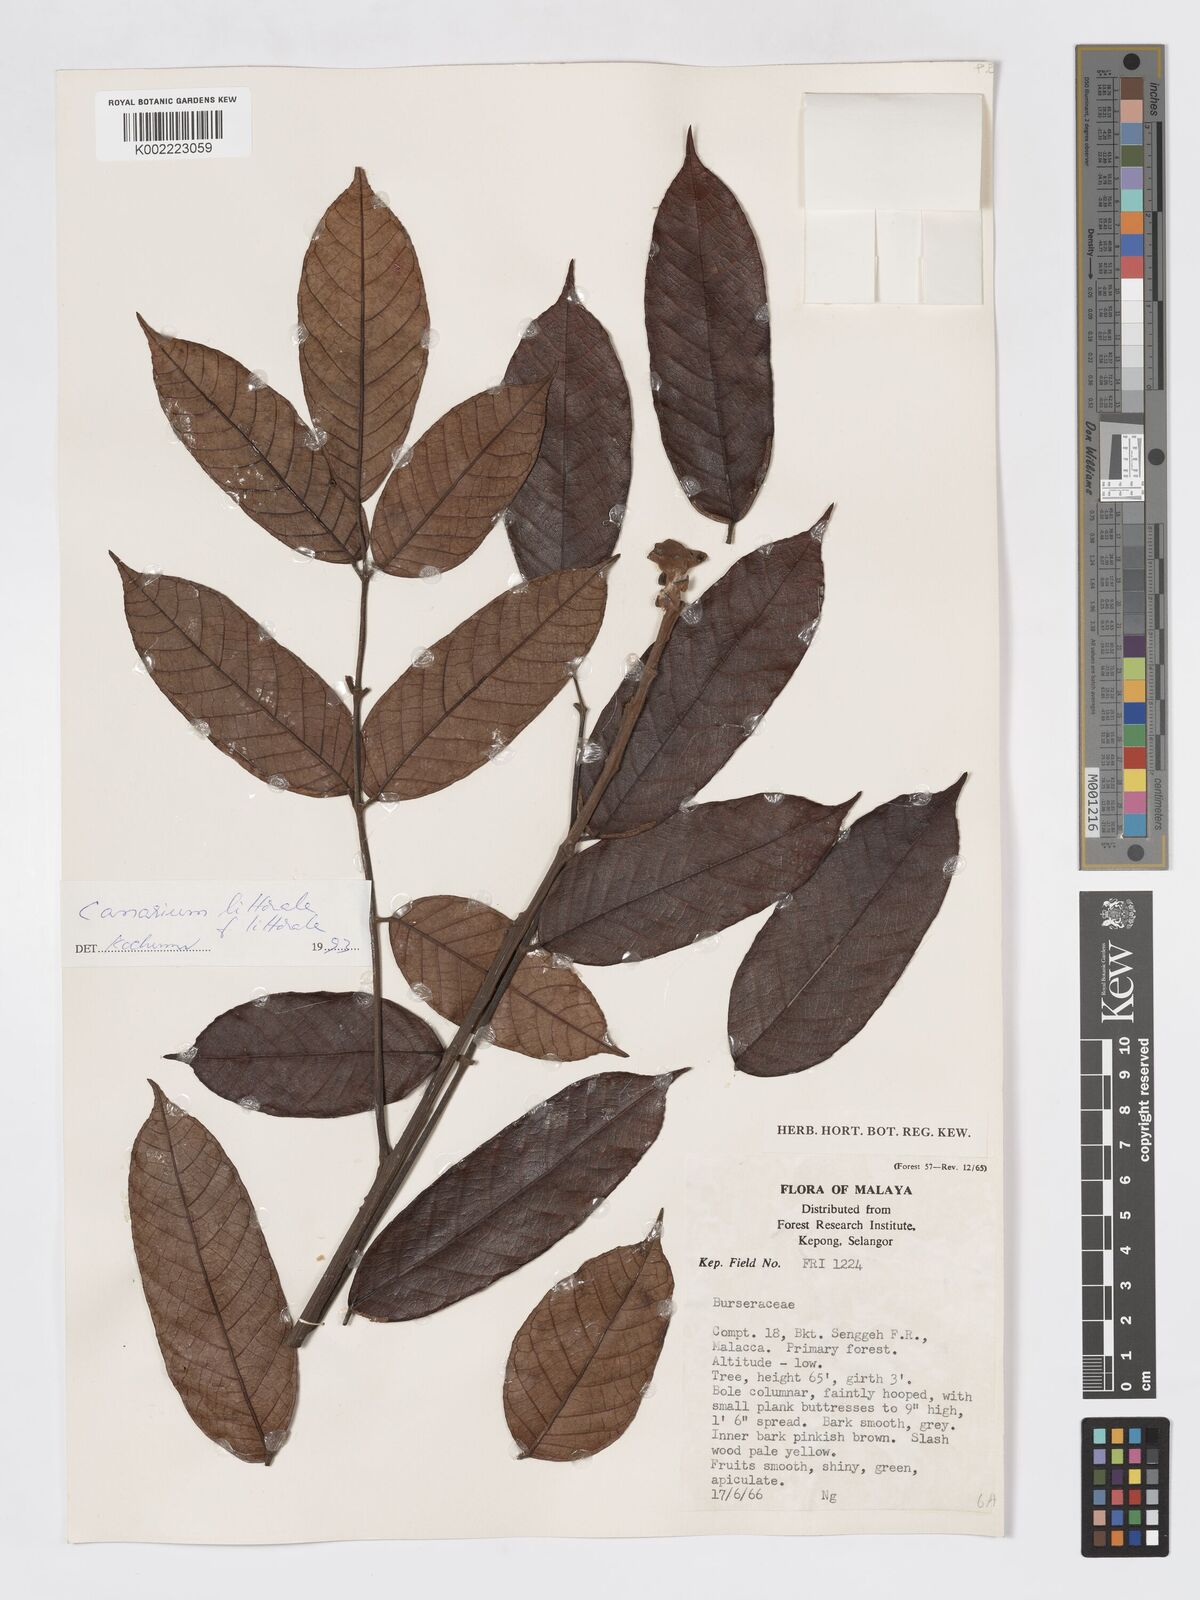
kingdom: Plantae
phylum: Tracheophyta
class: Magnoliopsida
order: Sapindales
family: Burseraceae
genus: Canarium
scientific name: Canarium littorale
